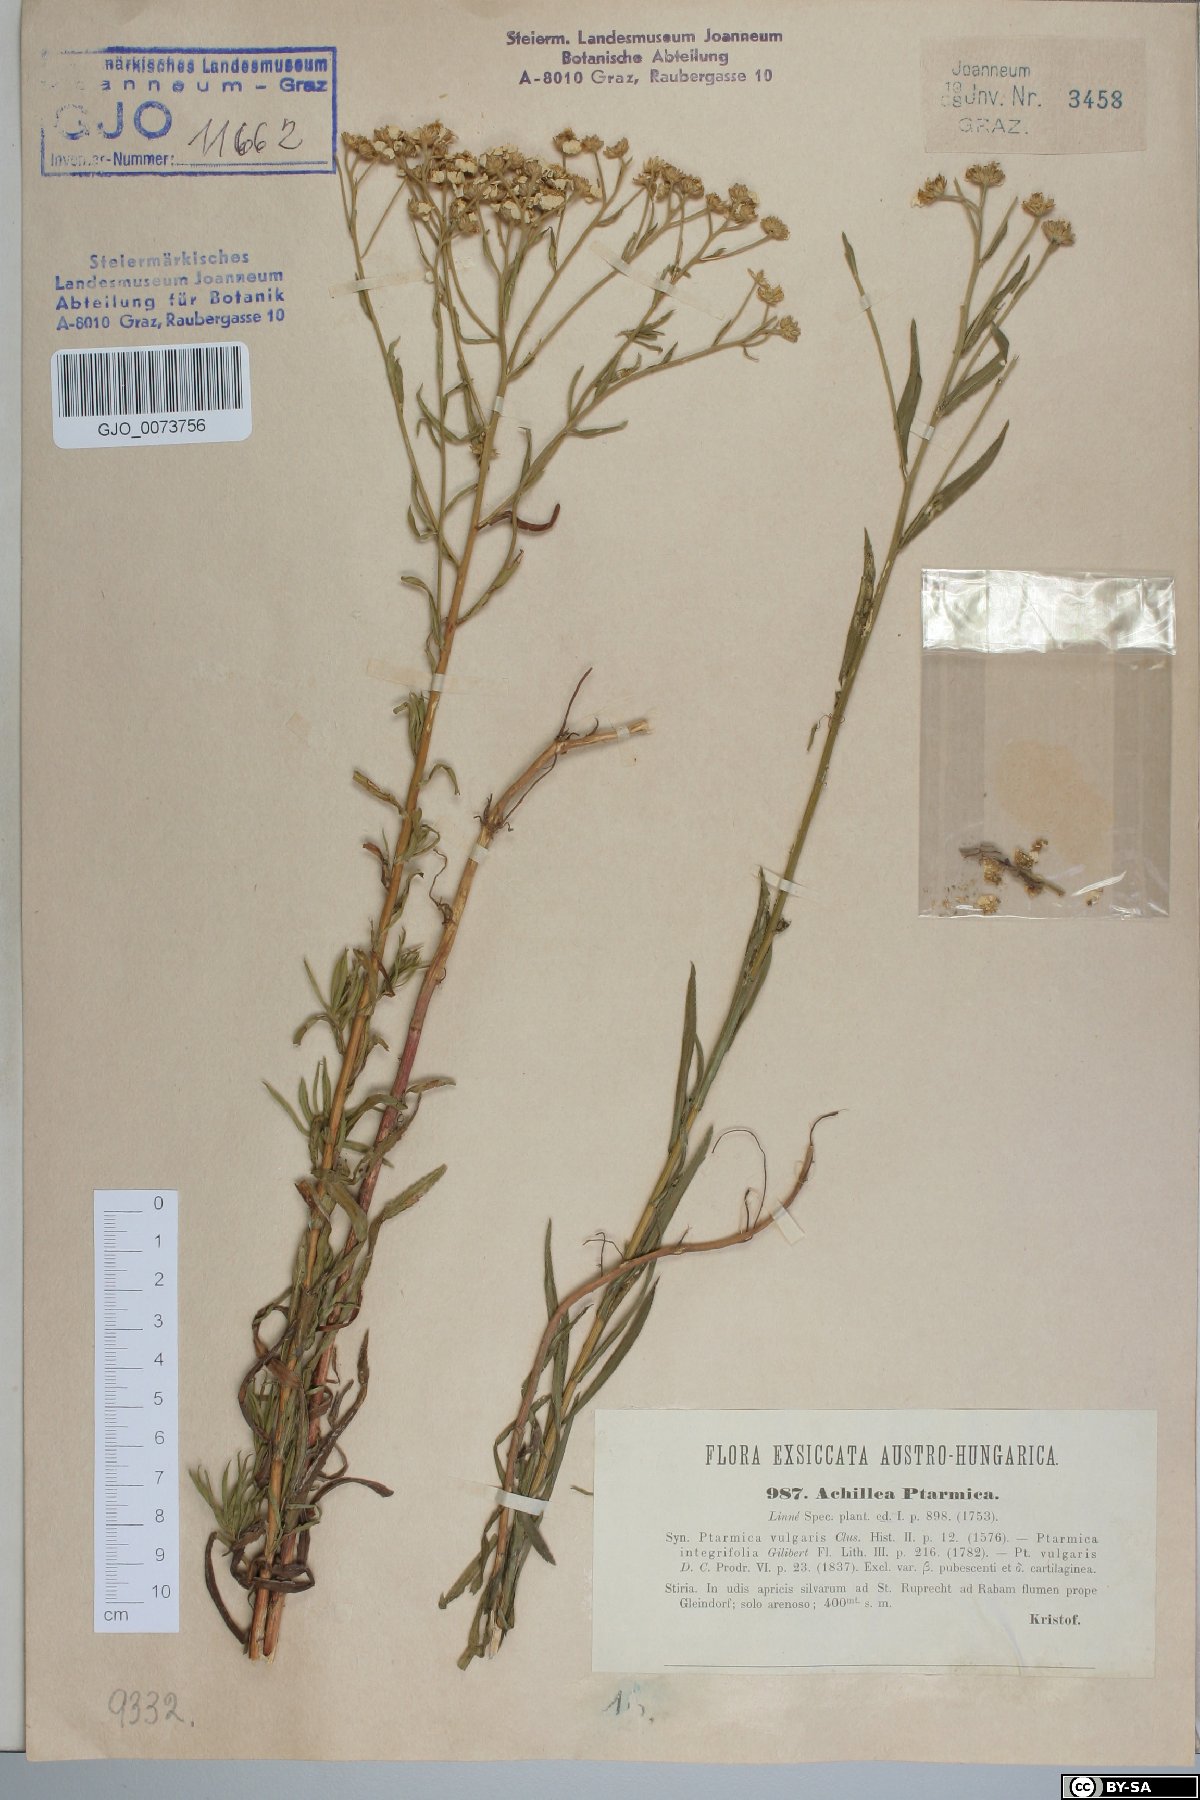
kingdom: Plantae
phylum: Tracheophyta
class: Magnoliopsida
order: Asterales
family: Asteraceae
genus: Achillea
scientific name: Achillea ptarmica
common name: Sneezeweed
